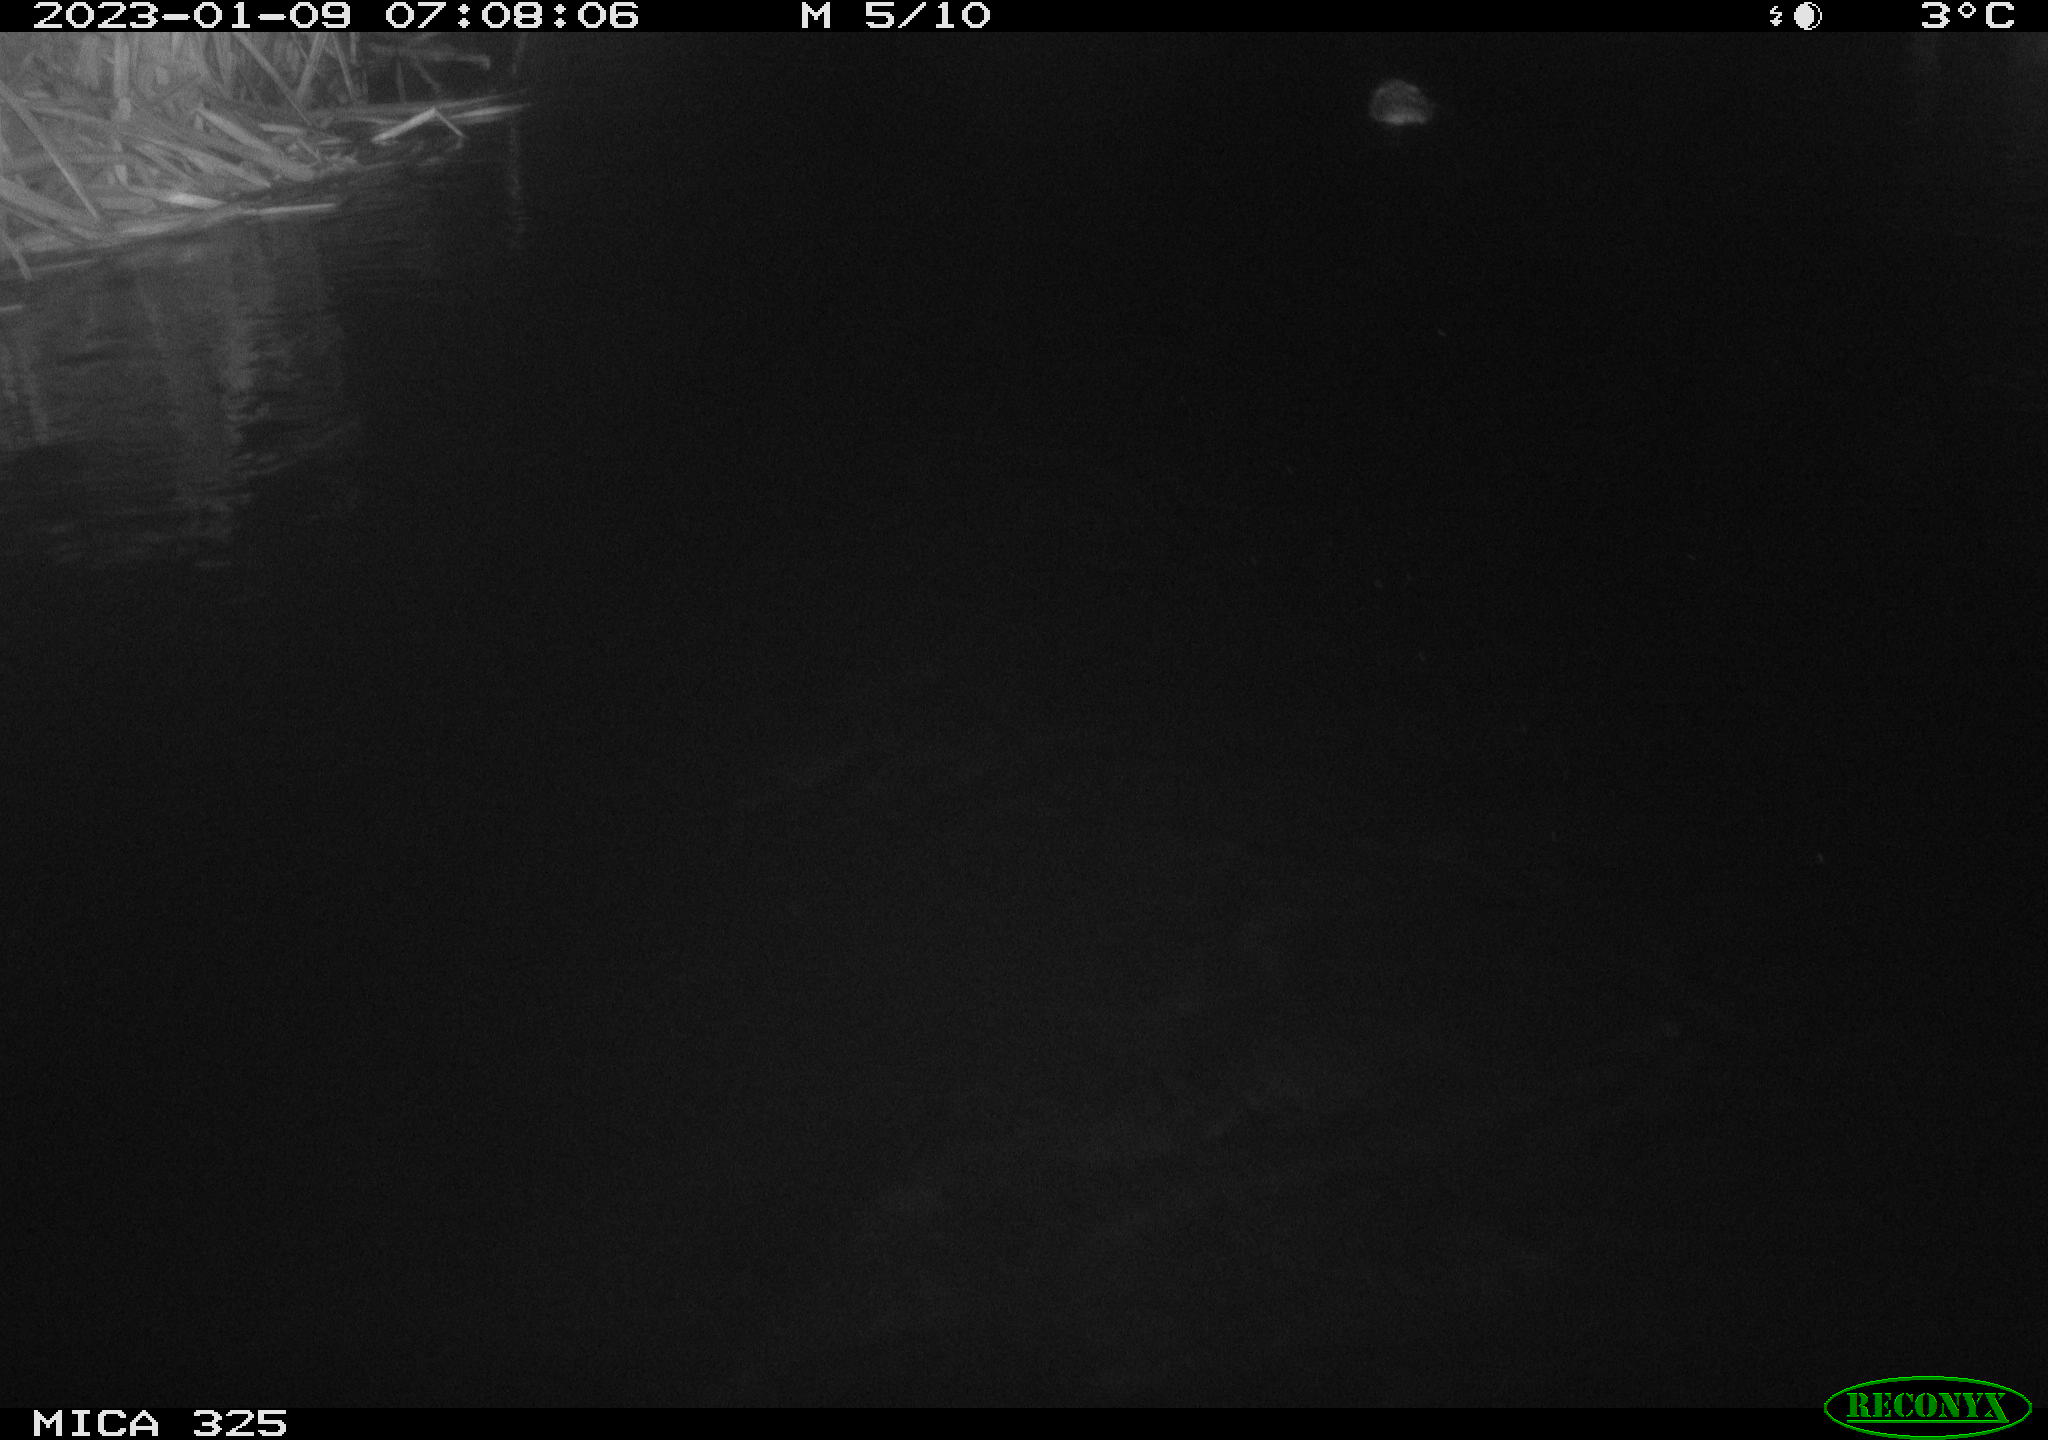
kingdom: Animalia
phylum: Chordata
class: Mammalia
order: Rodentia
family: Cricetidae
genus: Ondatra
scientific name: Ondatra zibethicus
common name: Muskrat
